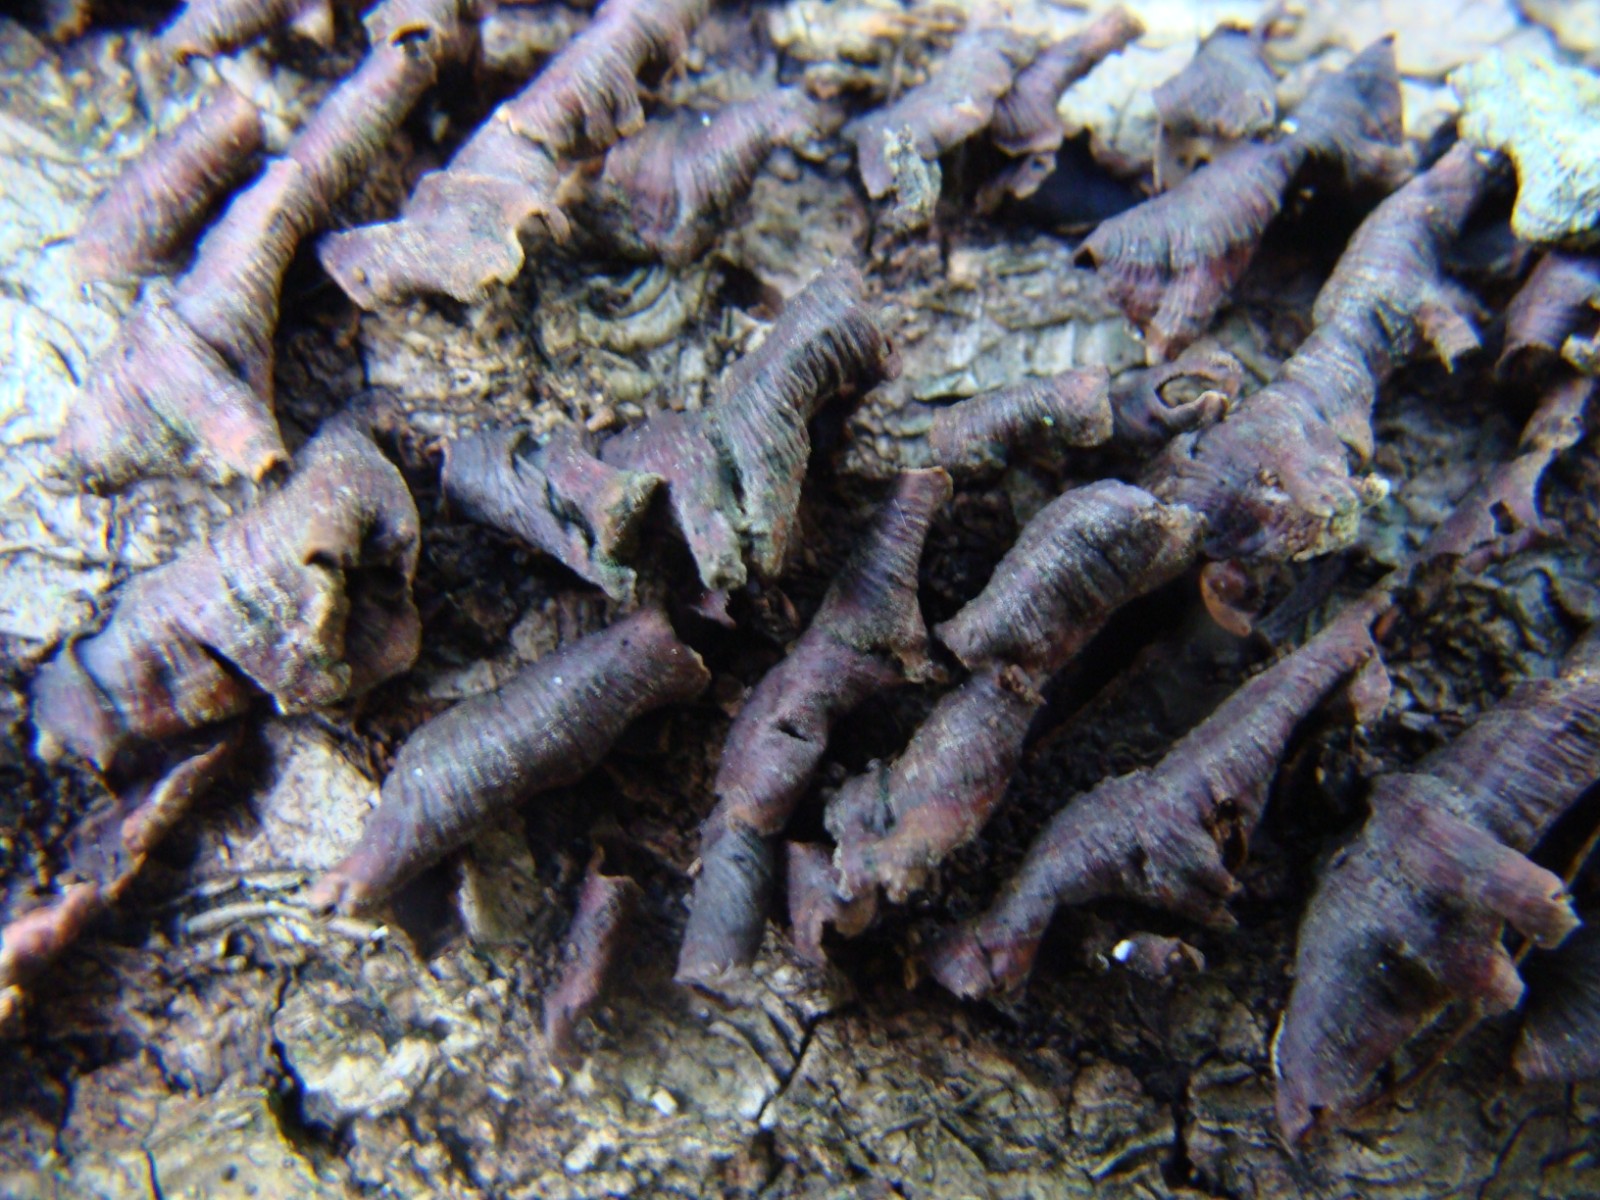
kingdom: Fungi
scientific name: Fungi
